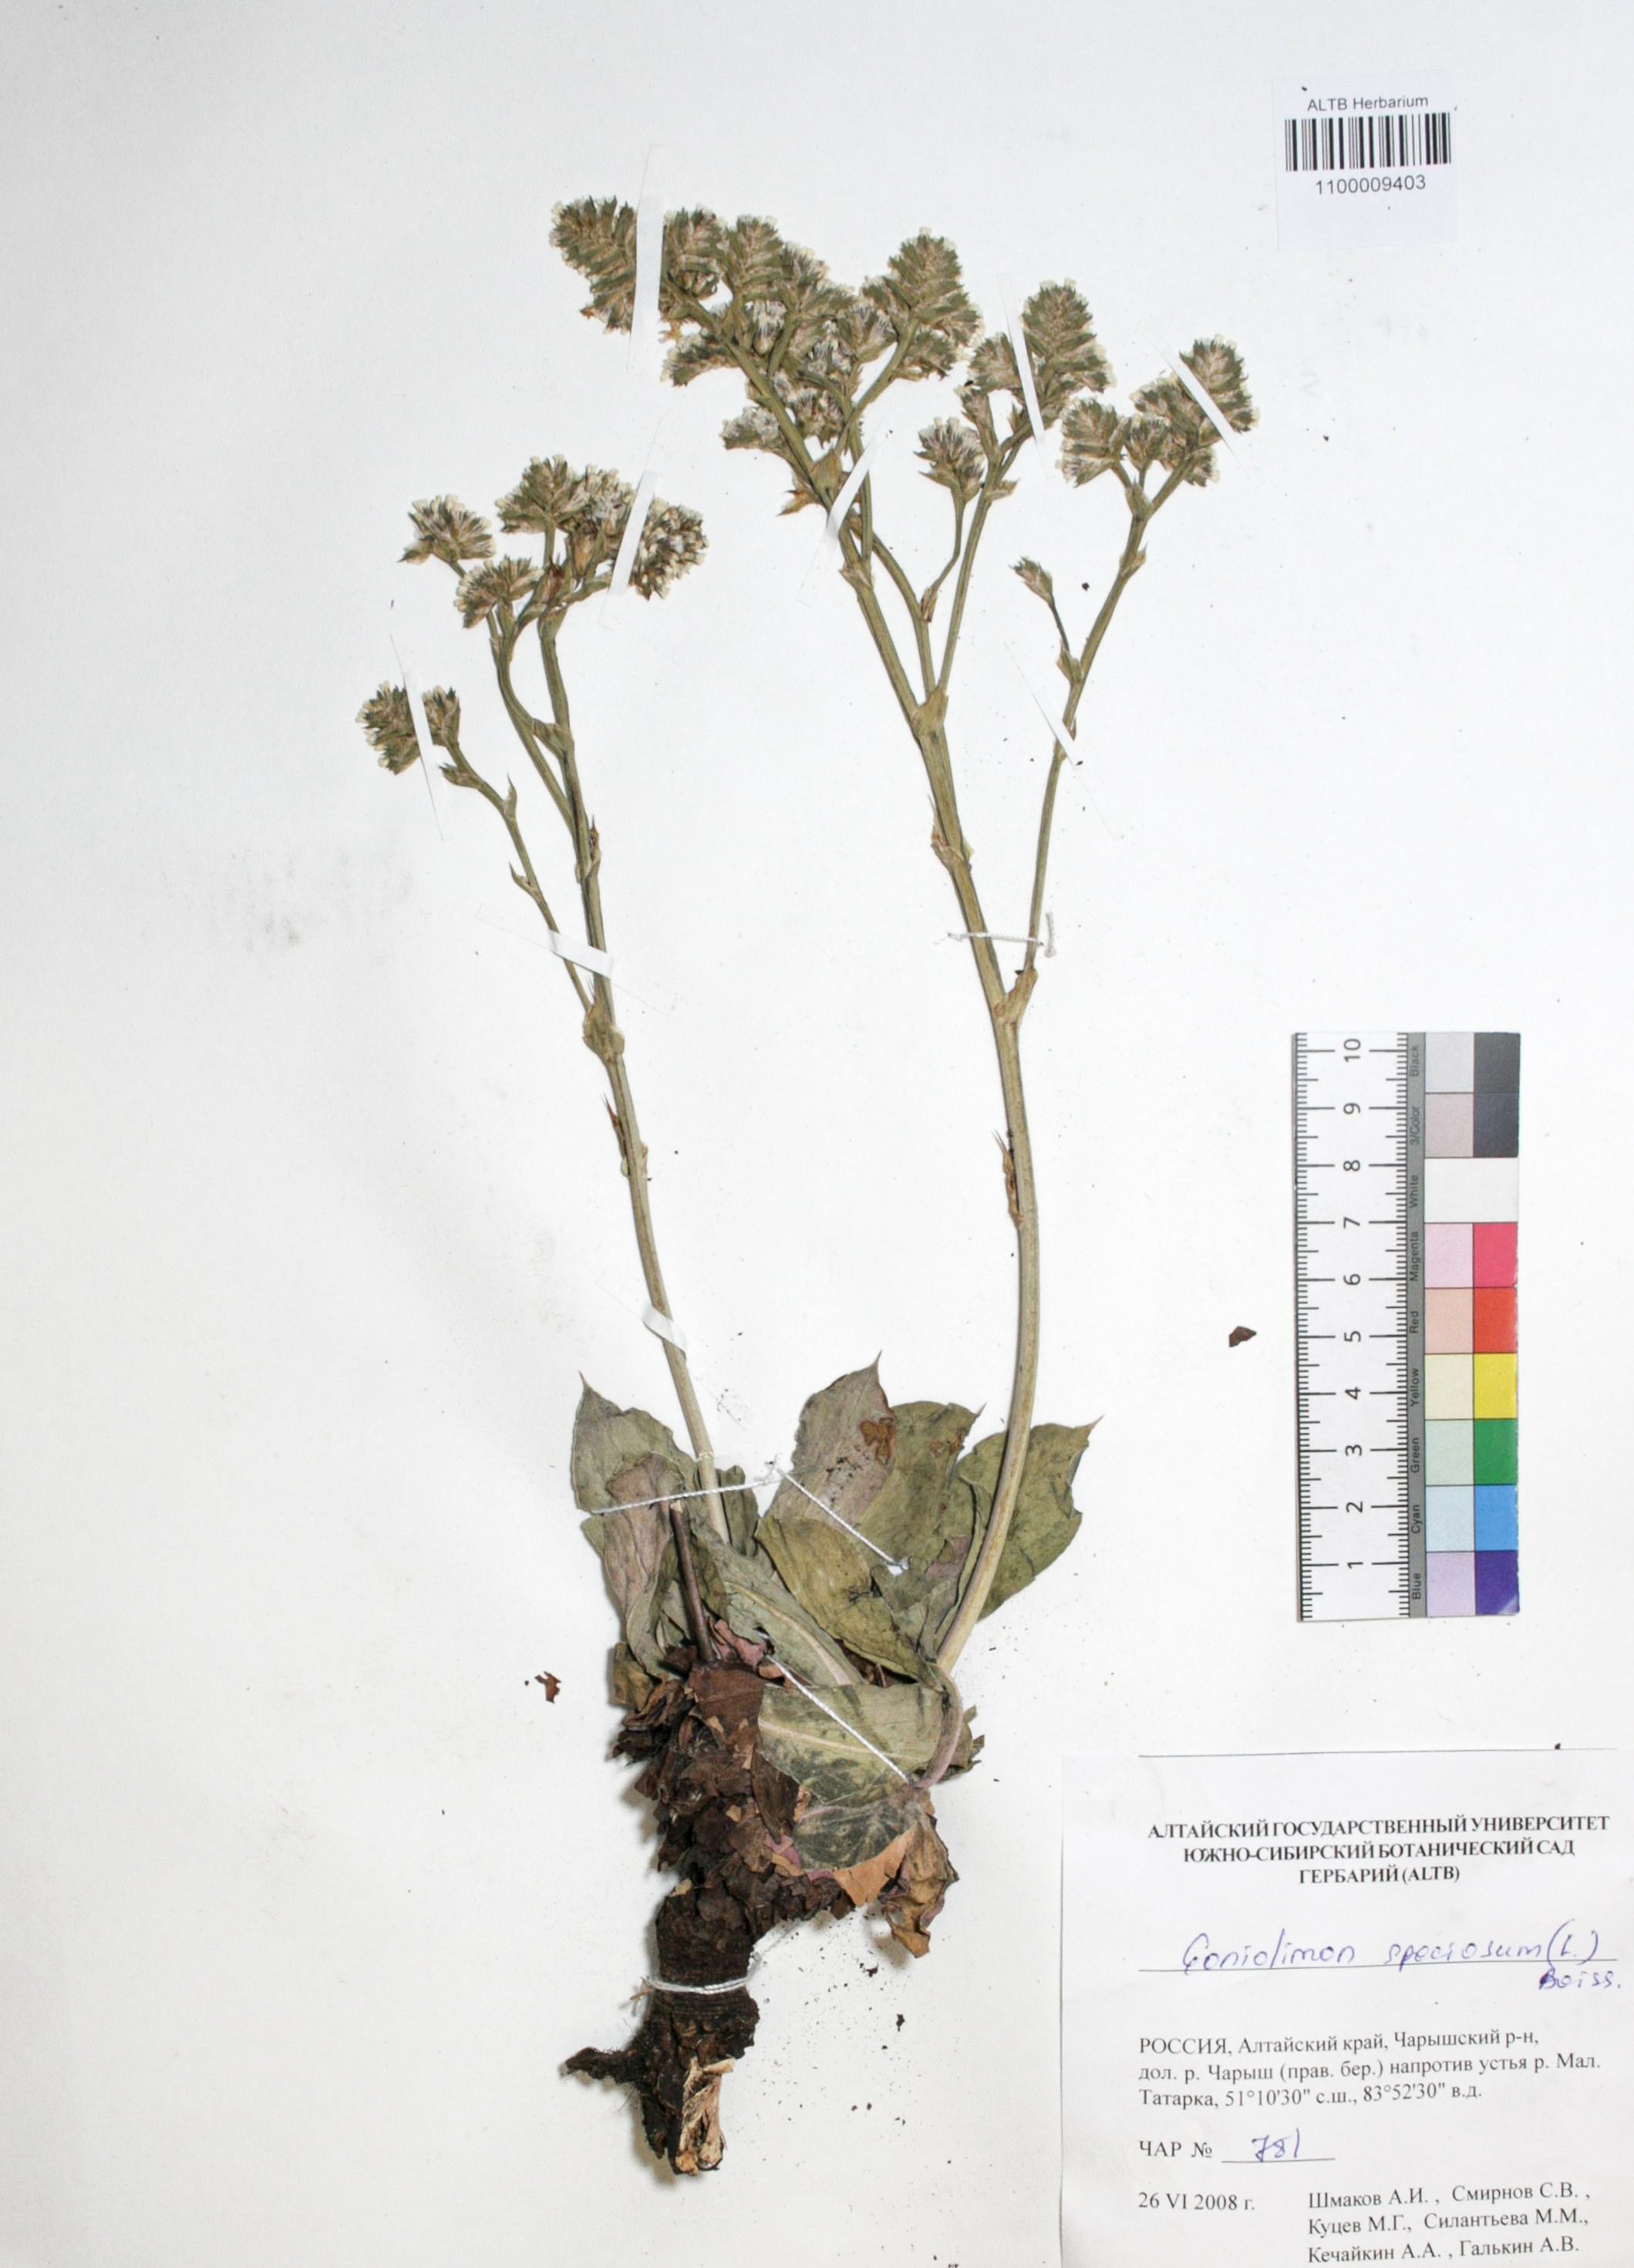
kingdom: Plantae
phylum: Tracheophyta
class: Magnoliopsida
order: Caryophyllales
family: Plumbaginaceae
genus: Goniolimon
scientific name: Goniolimon speciosum
